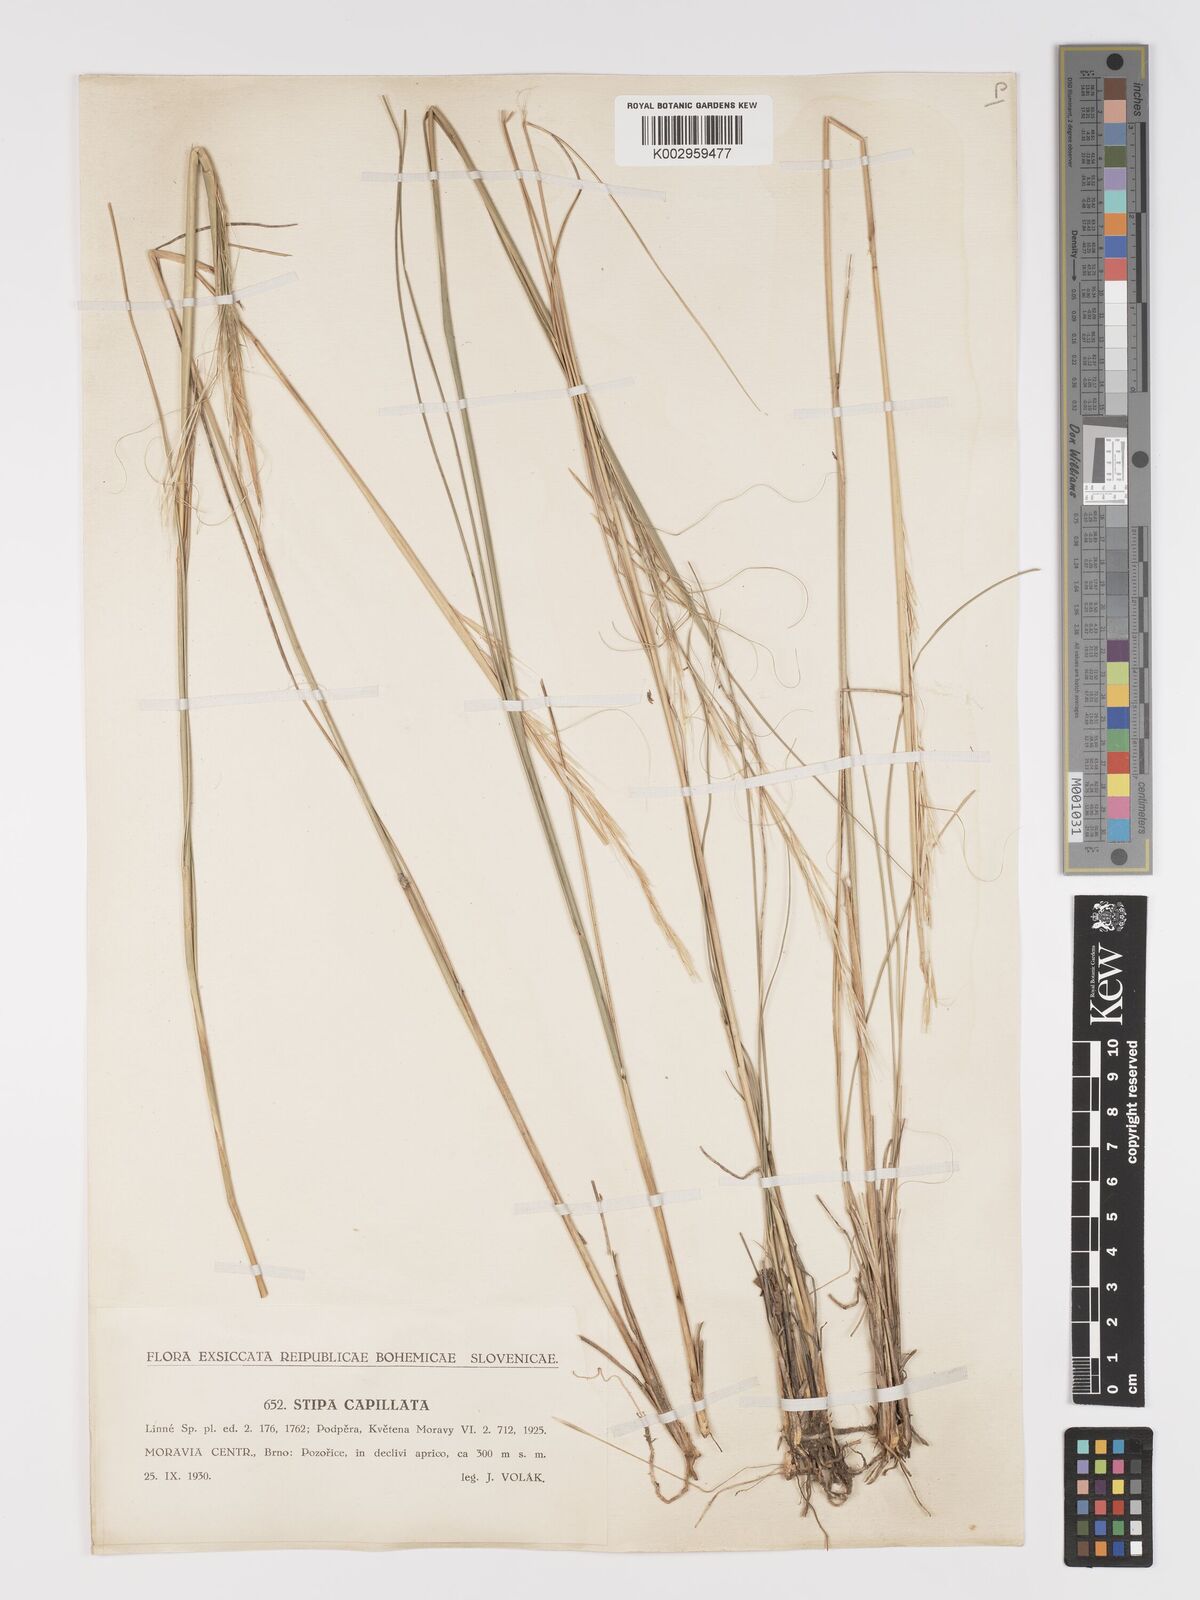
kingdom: Plantae
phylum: Tracheophyta
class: Liliopsida
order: Poales
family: Poaceae
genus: Stipa
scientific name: Stipa capillata
